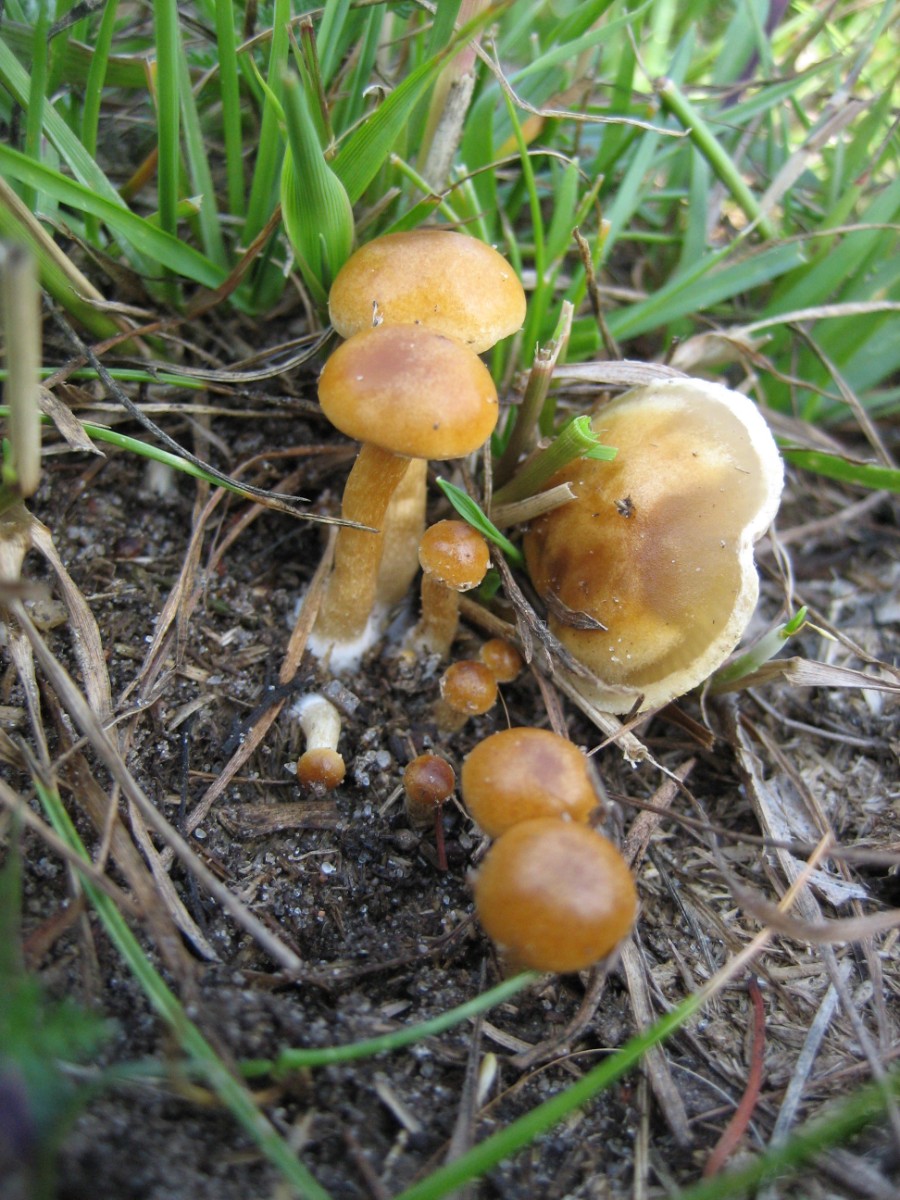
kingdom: Fungi
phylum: Basidiomycota
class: Agaricomycetes
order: Agaricales
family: Strophariaceae
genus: Agrocybe
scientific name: Agrocybe
